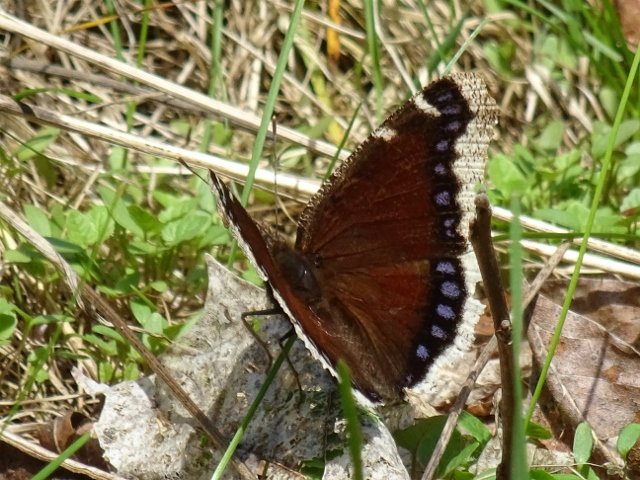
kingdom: Animalia
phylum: Arthropoda
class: Insecta
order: Lepidoptera
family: Nymphalidae
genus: Nymphalis
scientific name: Nymphalis antiopa
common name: Mourning Cloak
